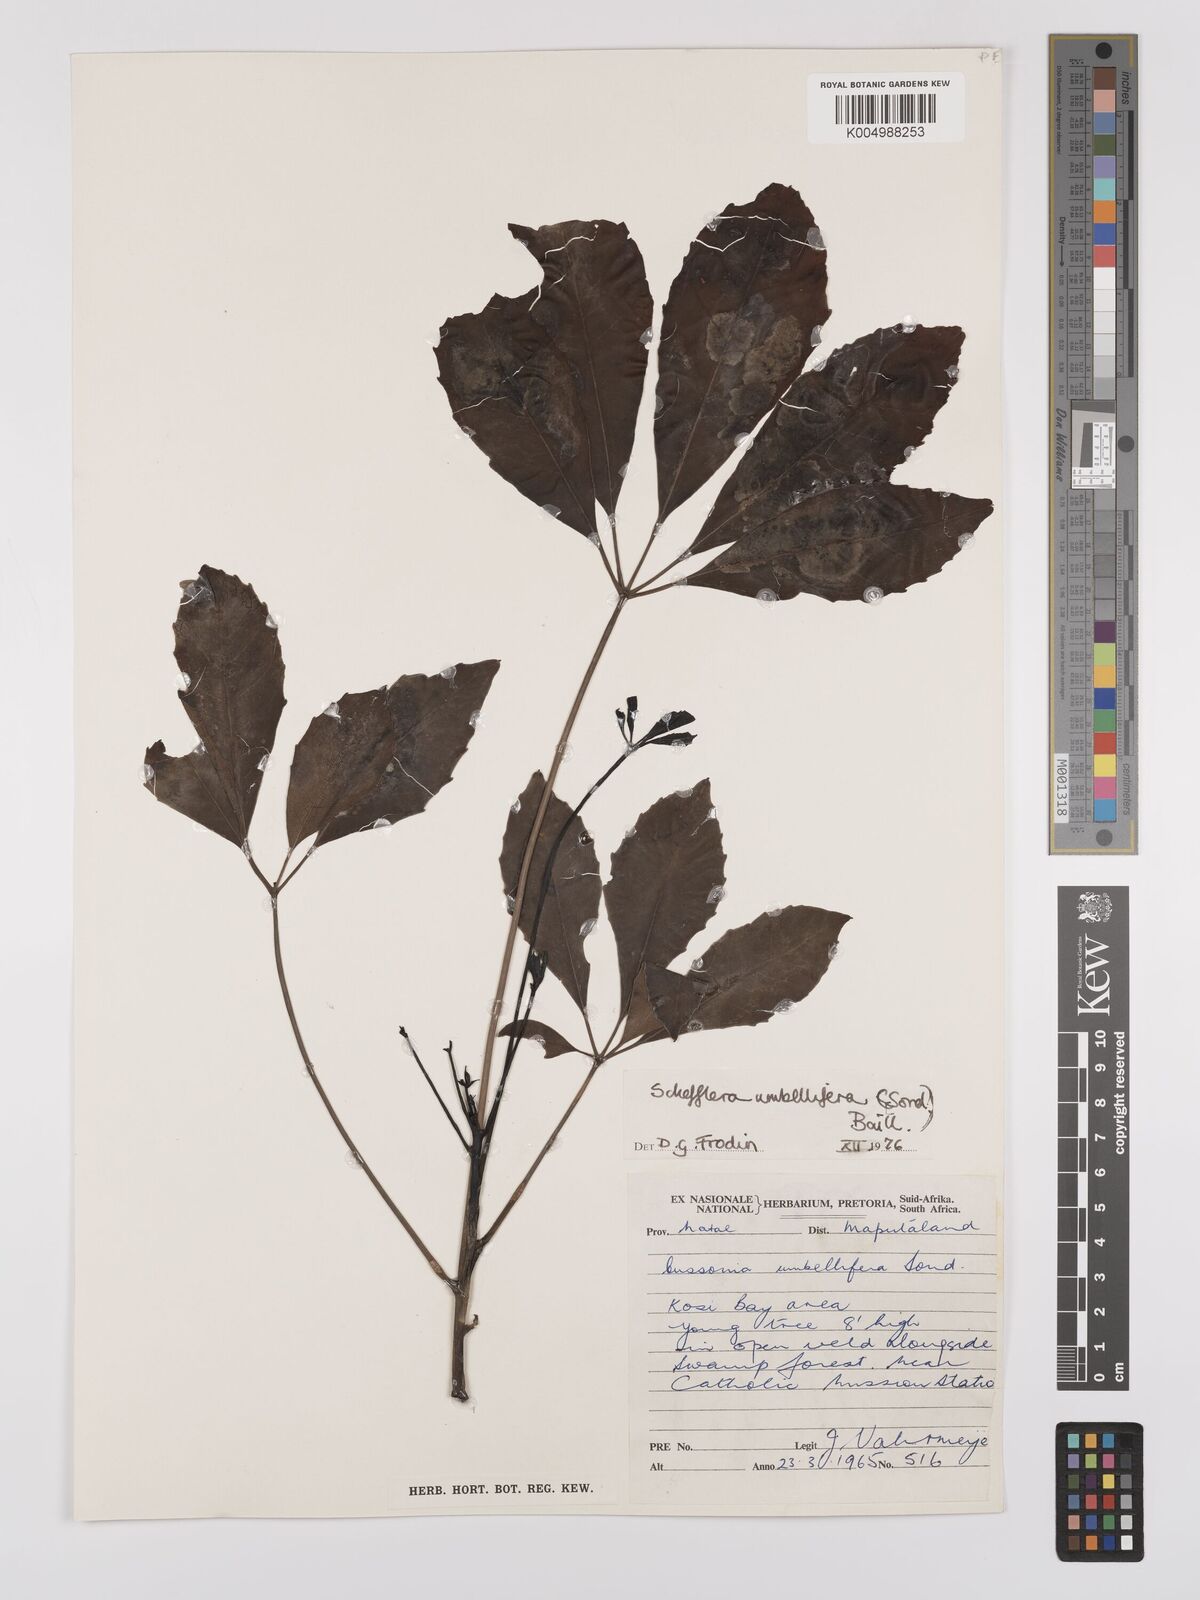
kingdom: Plantae
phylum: Tracheophyta
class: Magnoliopsida
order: Apiales
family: Araliaceae
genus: Neocussonia
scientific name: Neocussonia umbellifera
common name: False cabbage tree
